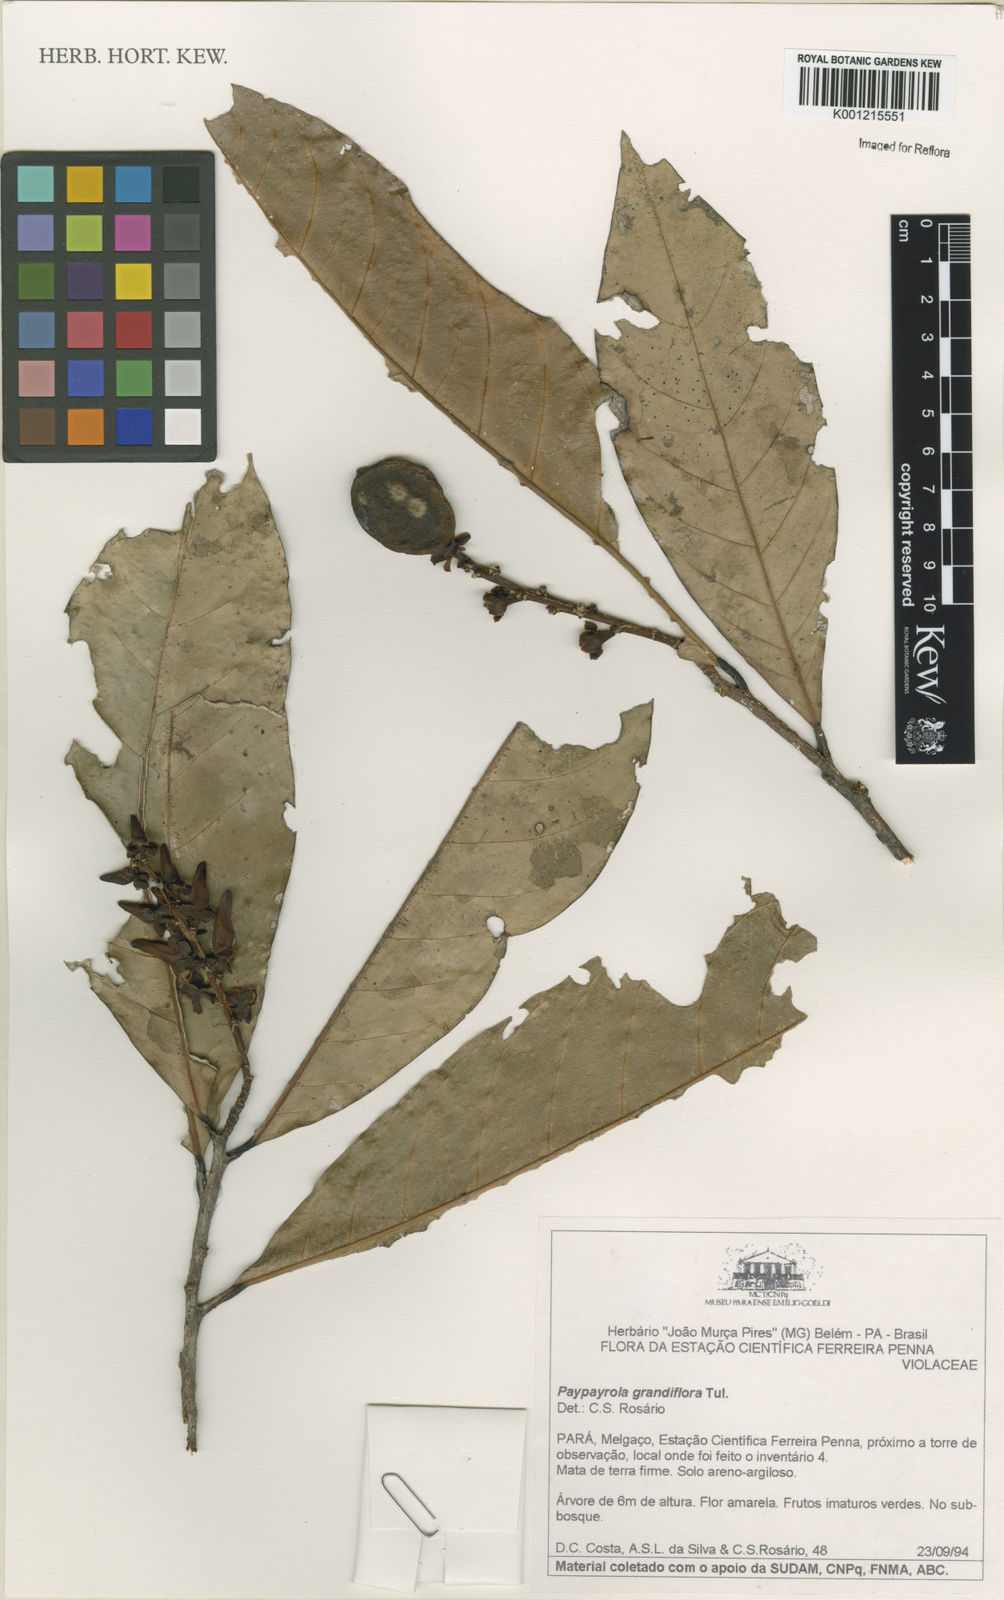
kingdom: Plantae
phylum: Tracheophyta
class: Magnoliopsida
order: Malpighiales
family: Violaceae
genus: Paypayrola
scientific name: Paypayrola grandiflora
